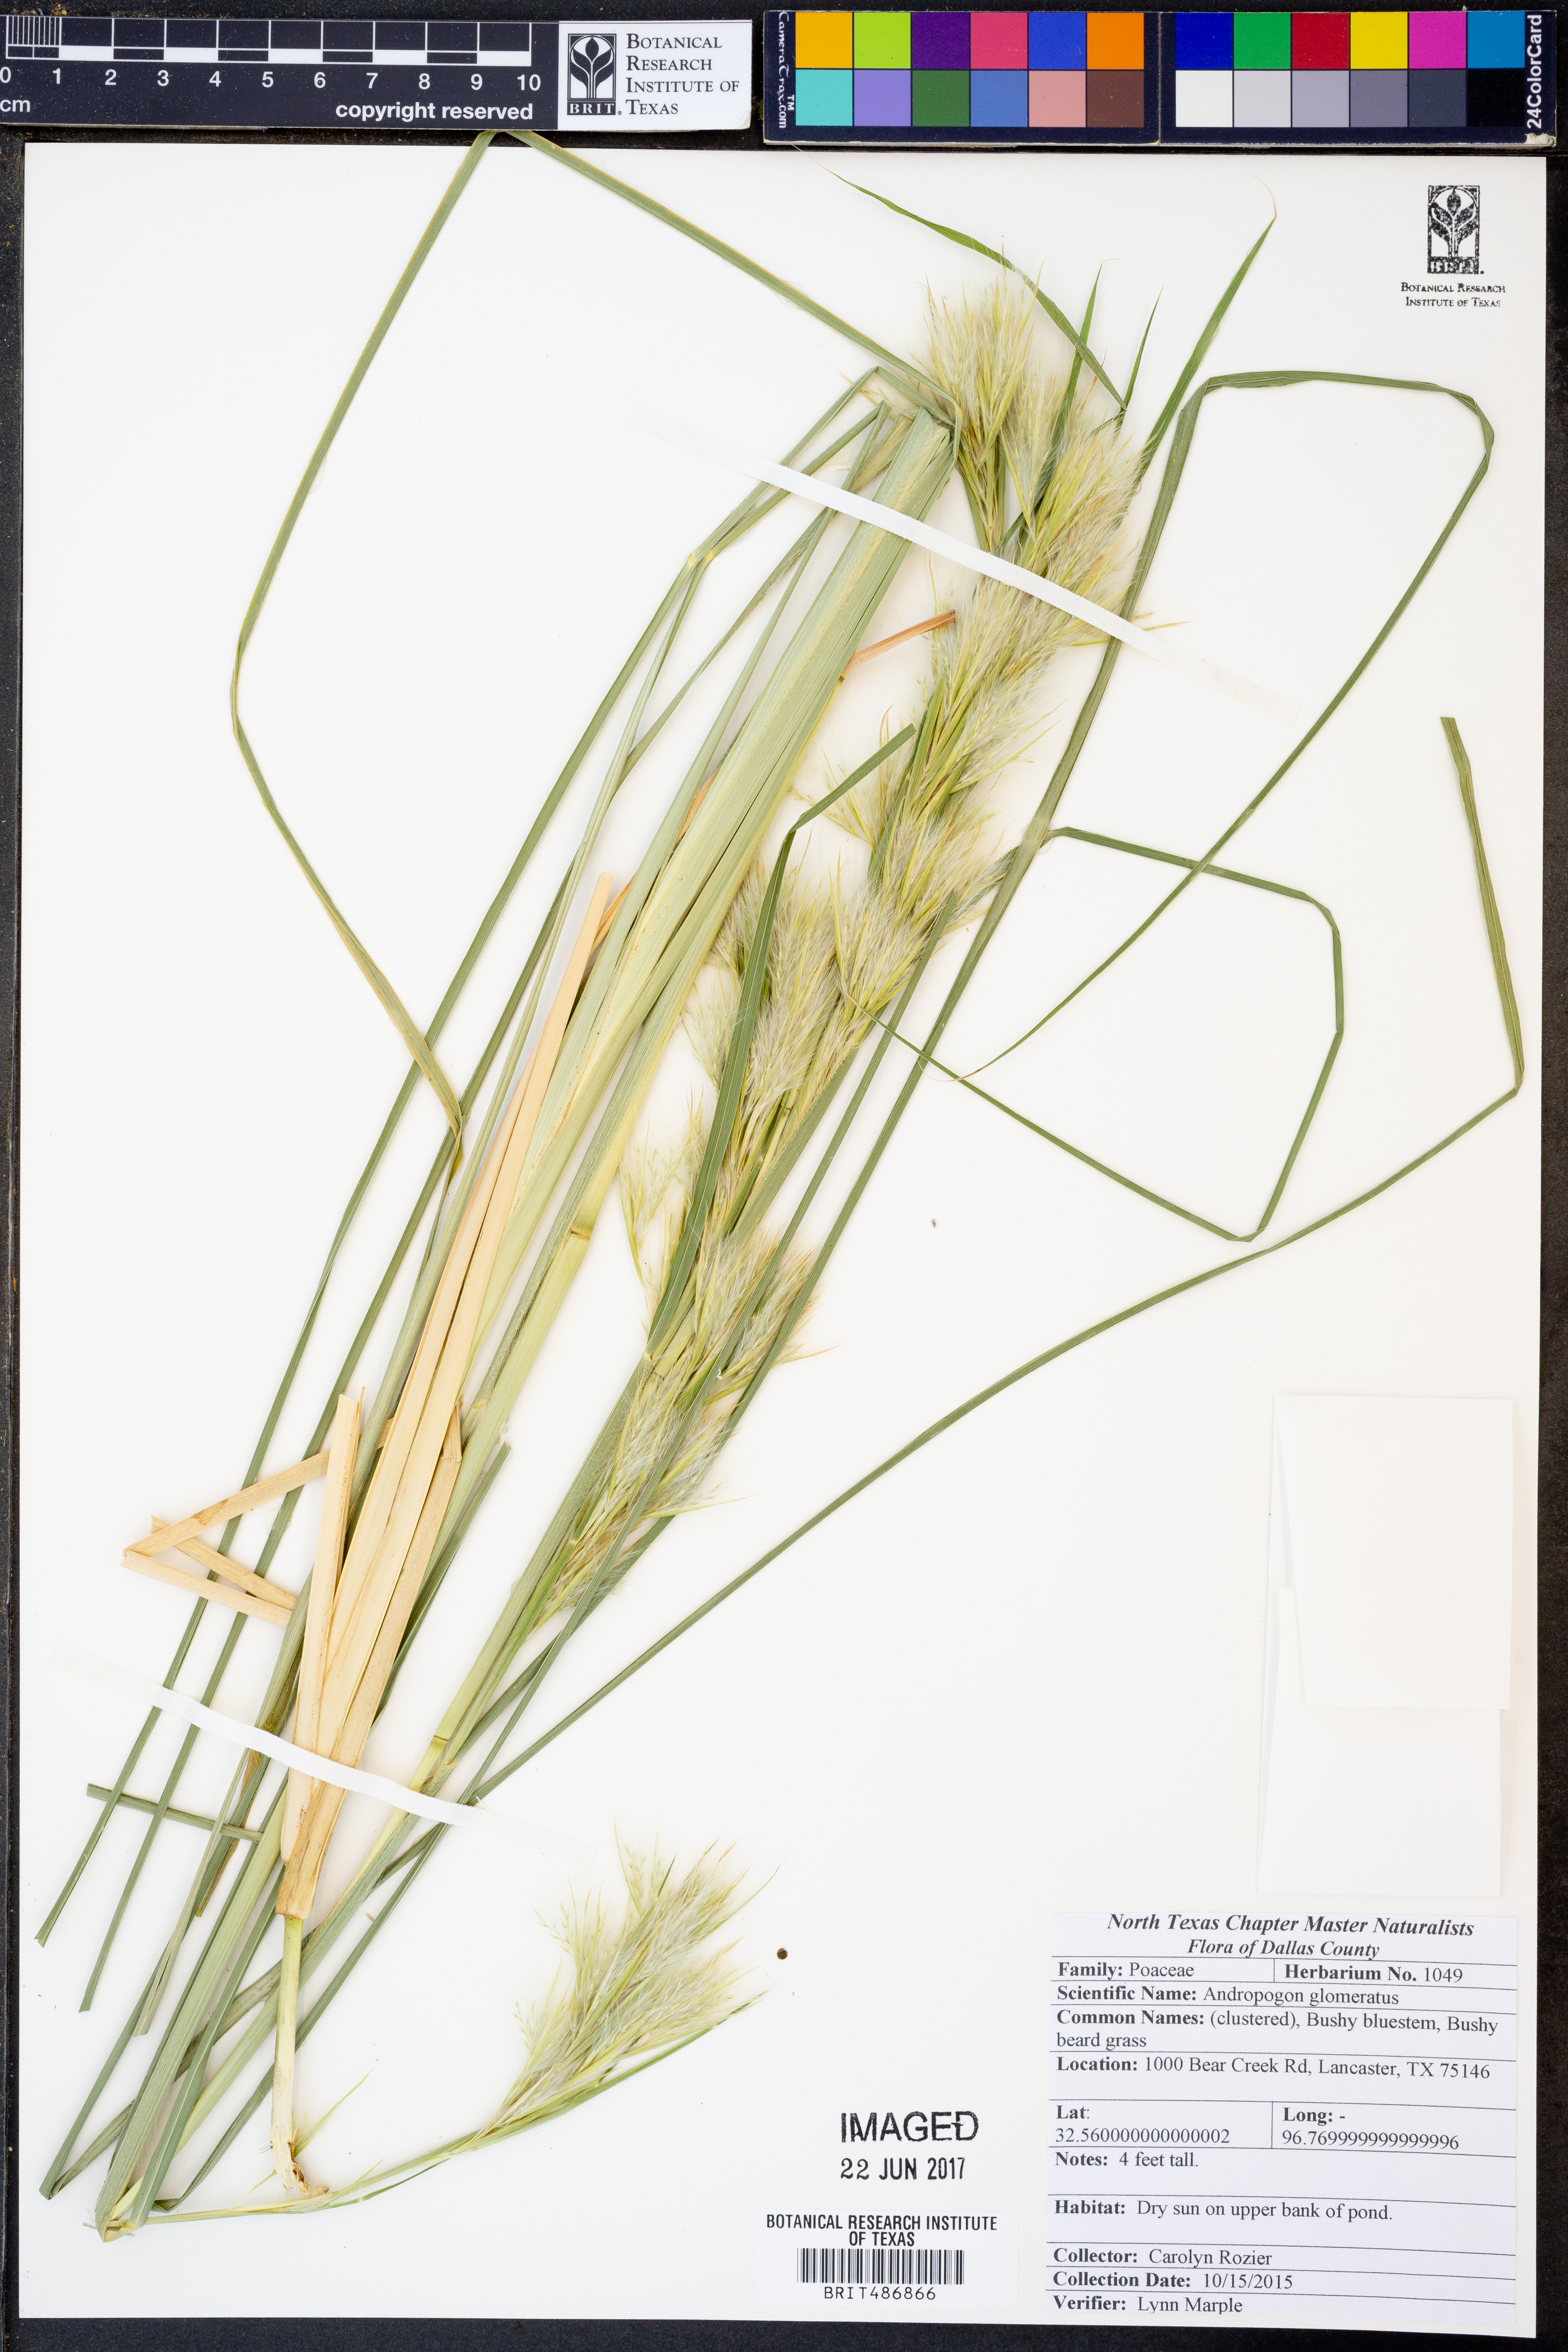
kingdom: Plantae
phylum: Tracheophyta
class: Liliopsida
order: Poales
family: Poaceae
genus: Andropogon
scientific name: Andropogon glomeratus
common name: Bushy beard grass
